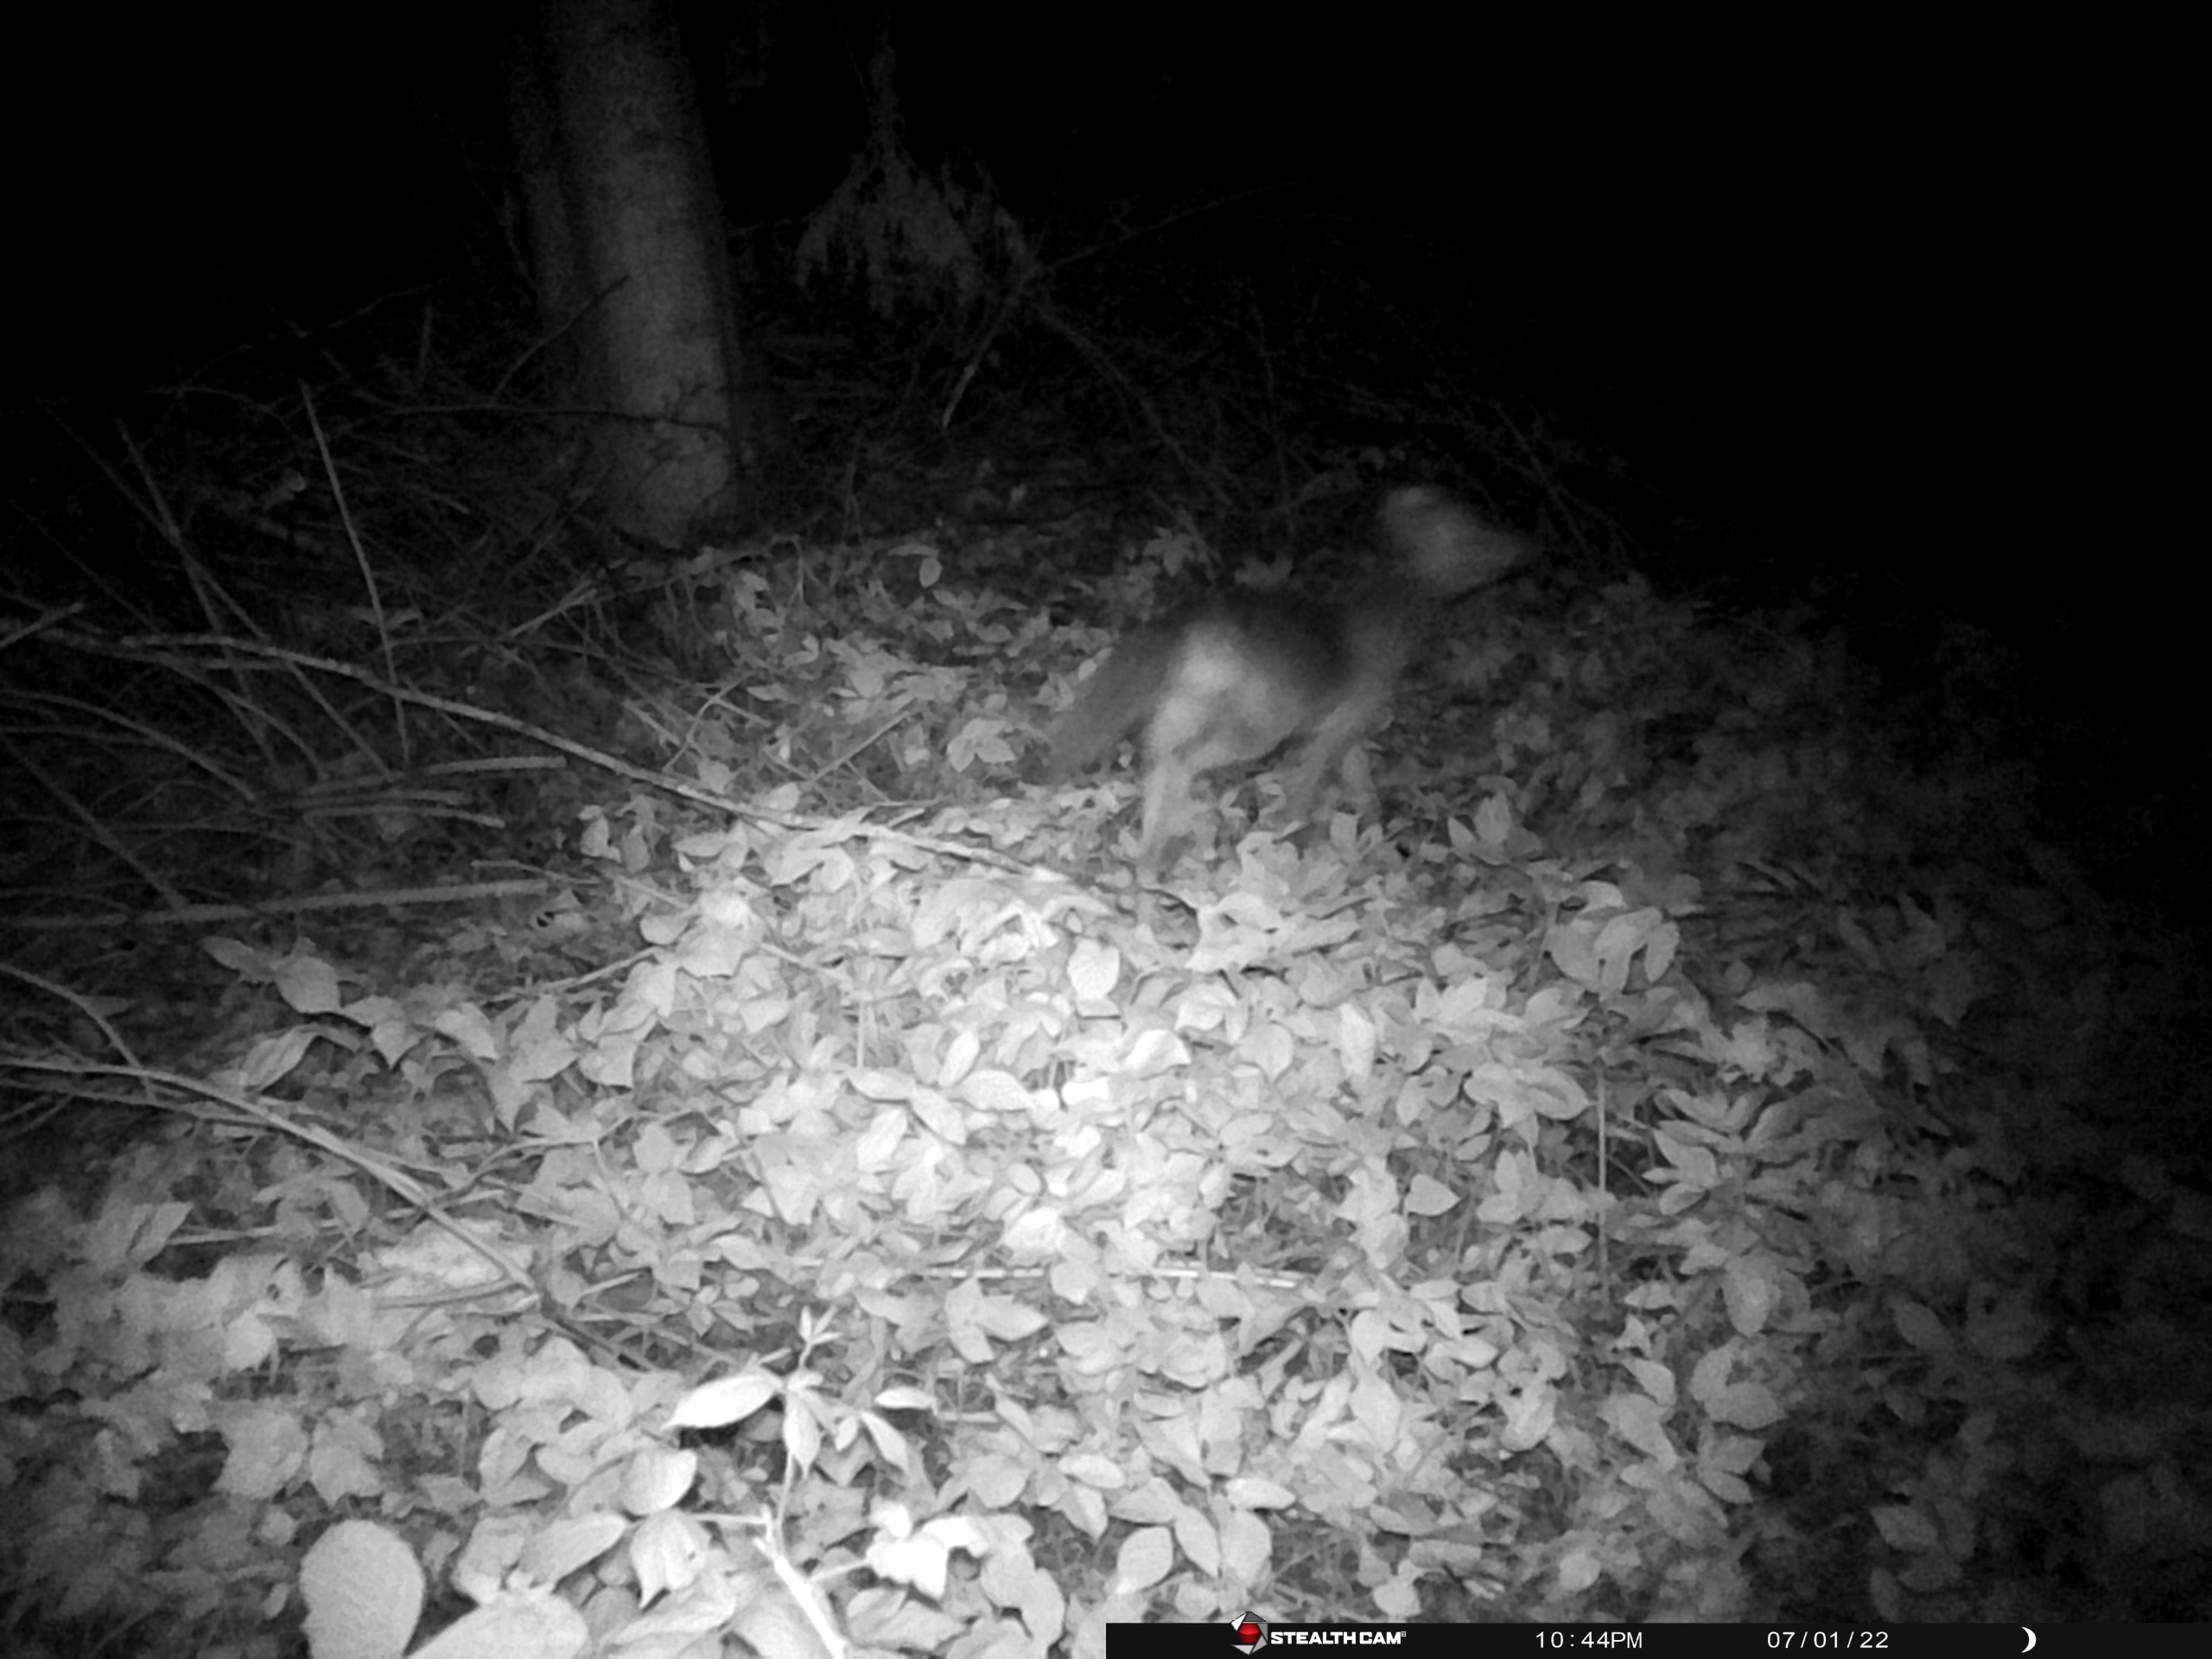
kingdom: Animalia
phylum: Chordata
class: Mammalia
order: Carnivora
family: Canidae
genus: Vulpes
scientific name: Vulpes vulpes
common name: Ræv
